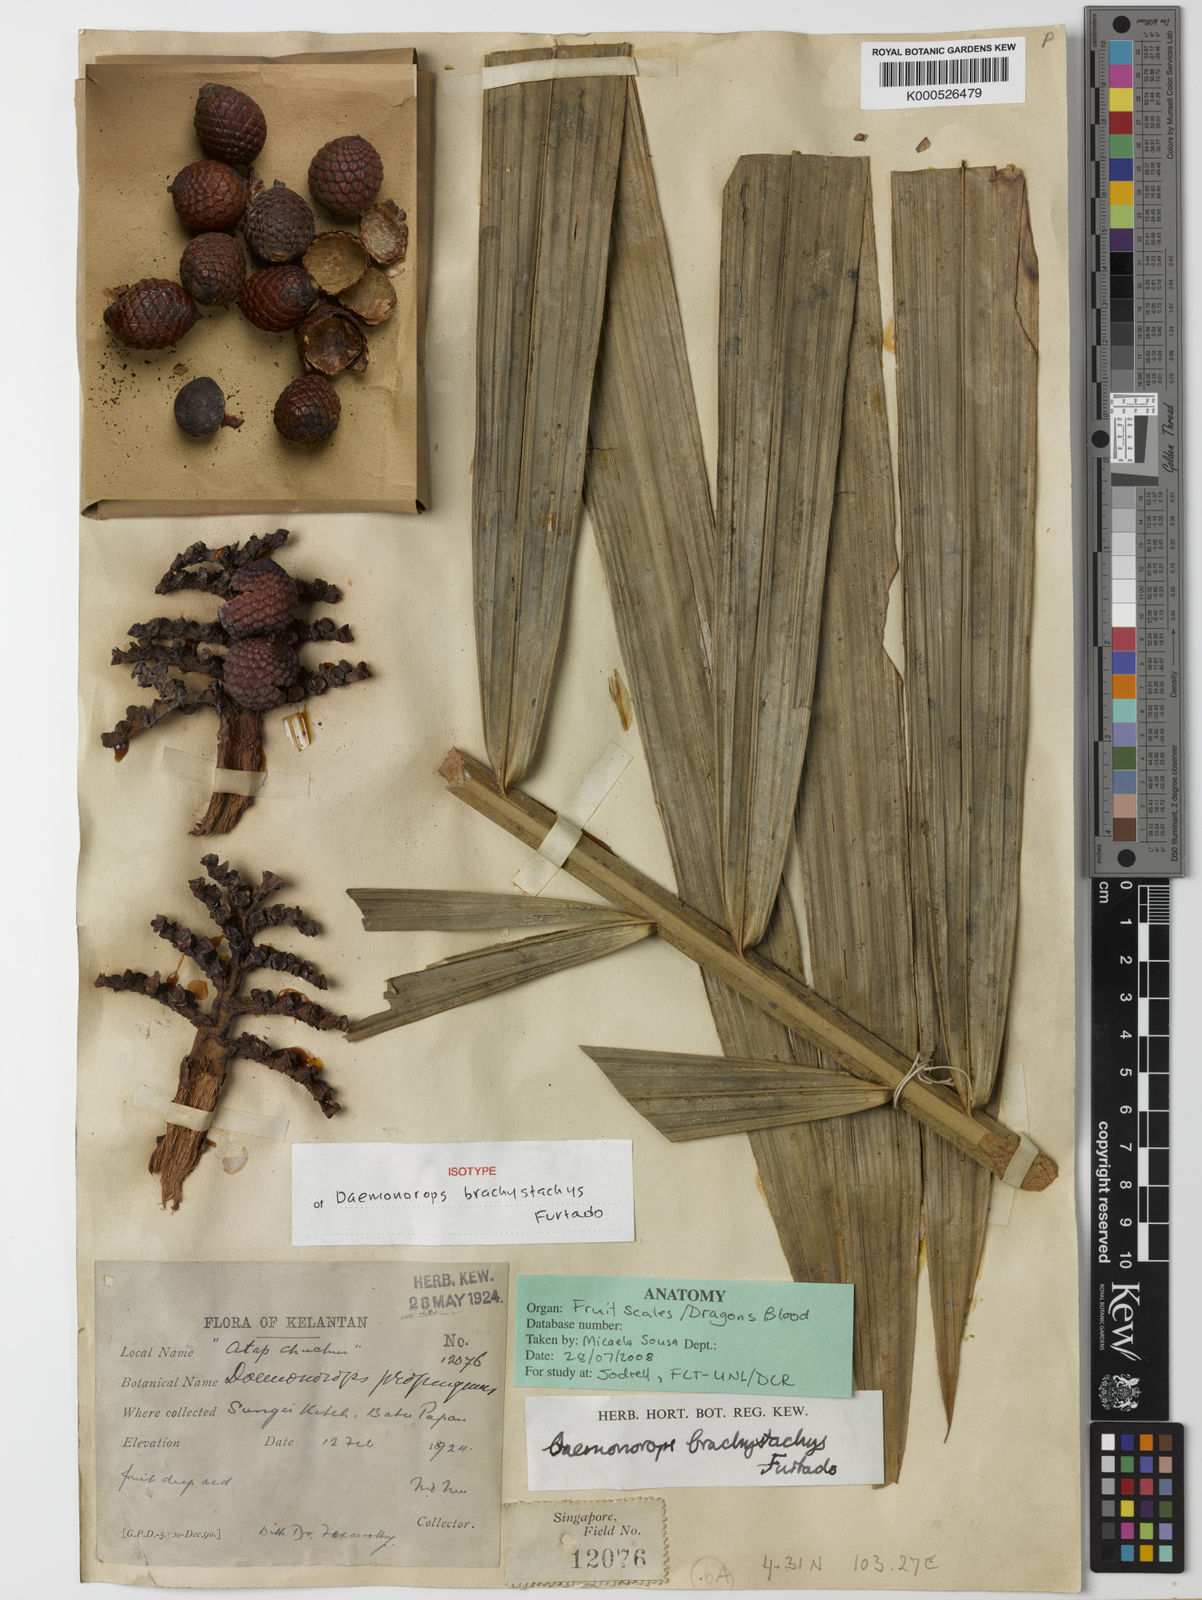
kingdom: Plantae
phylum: Tracheophyta
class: Liliopsida
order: Arecales
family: Arecaceae
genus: Calamus
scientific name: Calamus propinquus
